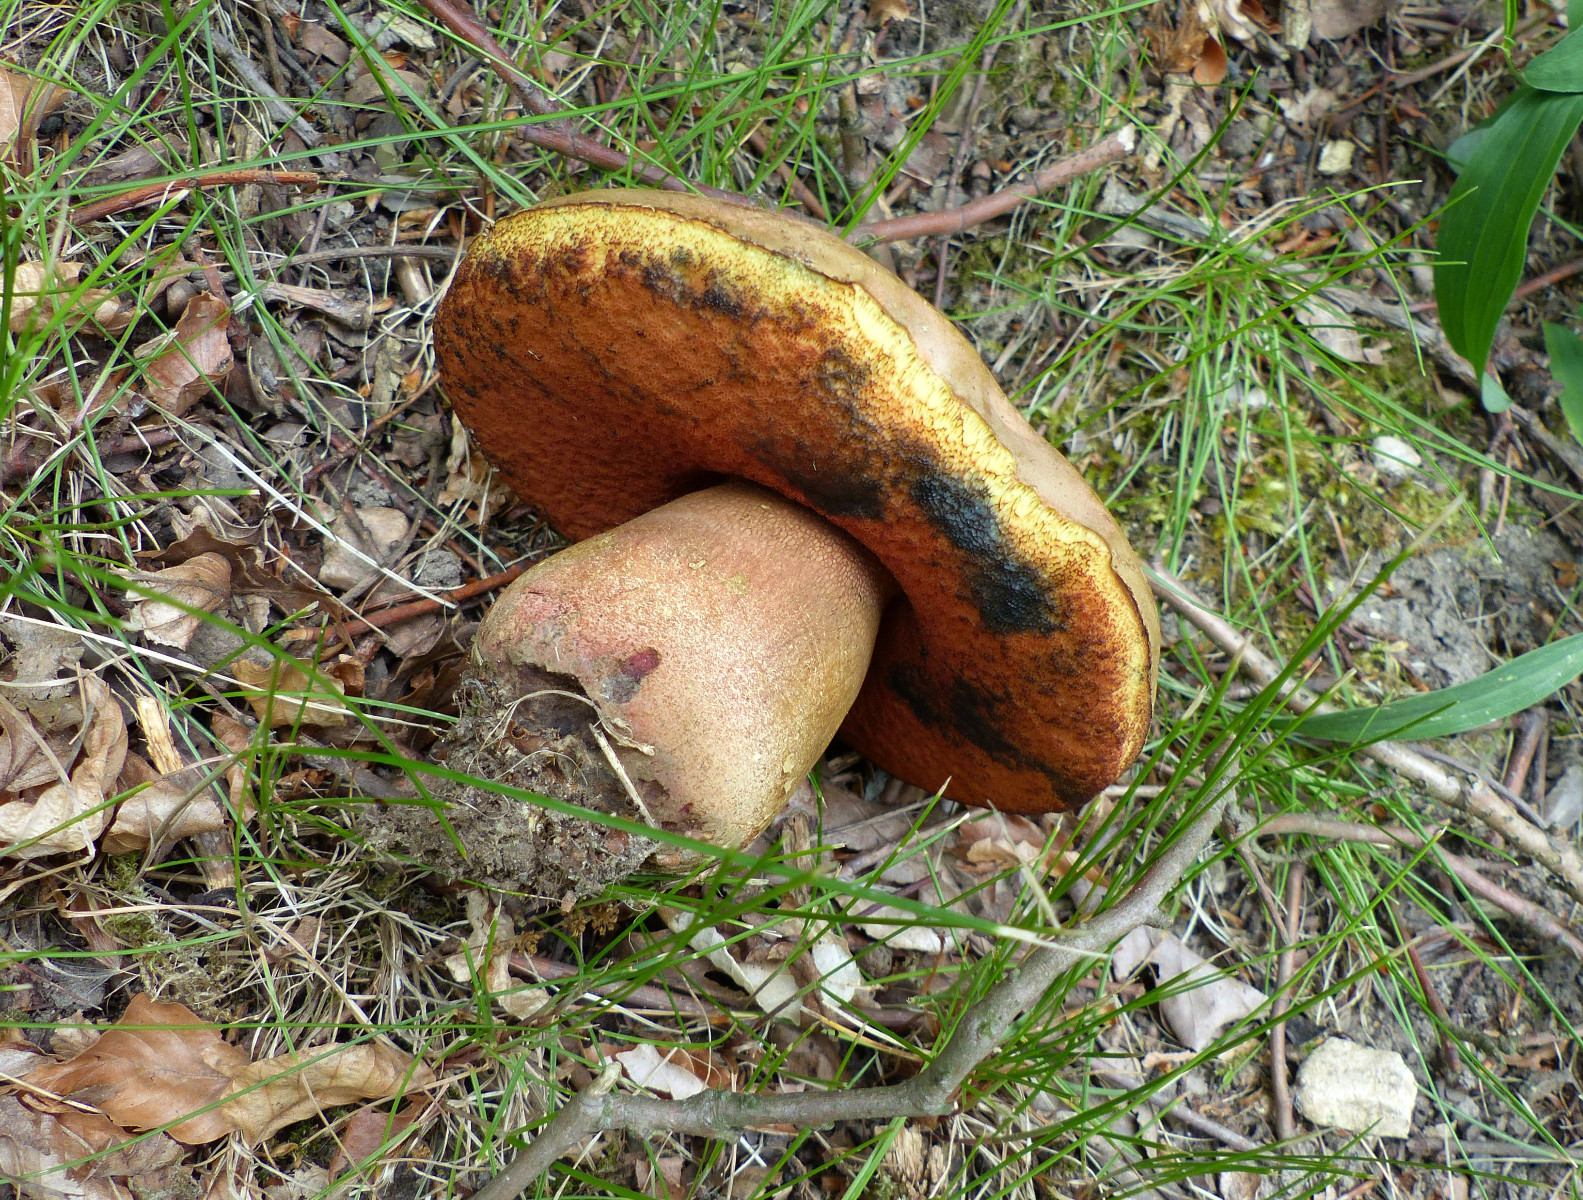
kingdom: Fungi
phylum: Basidiomycota
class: Agaricomycetes
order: Boletales
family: Boletaceae
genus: Neoboletus
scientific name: Neoboletus erythropus
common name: punktstokket indigorørhat
